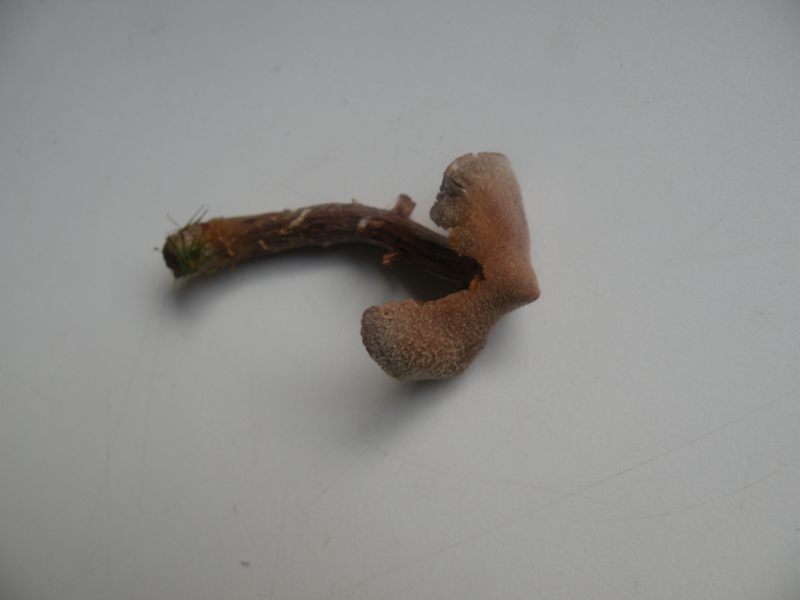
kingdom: Fungi
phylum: Basidiomycota
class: Agaricomycetes
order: Agaricales
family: Cortinariaceae
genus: Cortinarius
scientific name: Cortinarius
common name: pelargonie-slørhat
